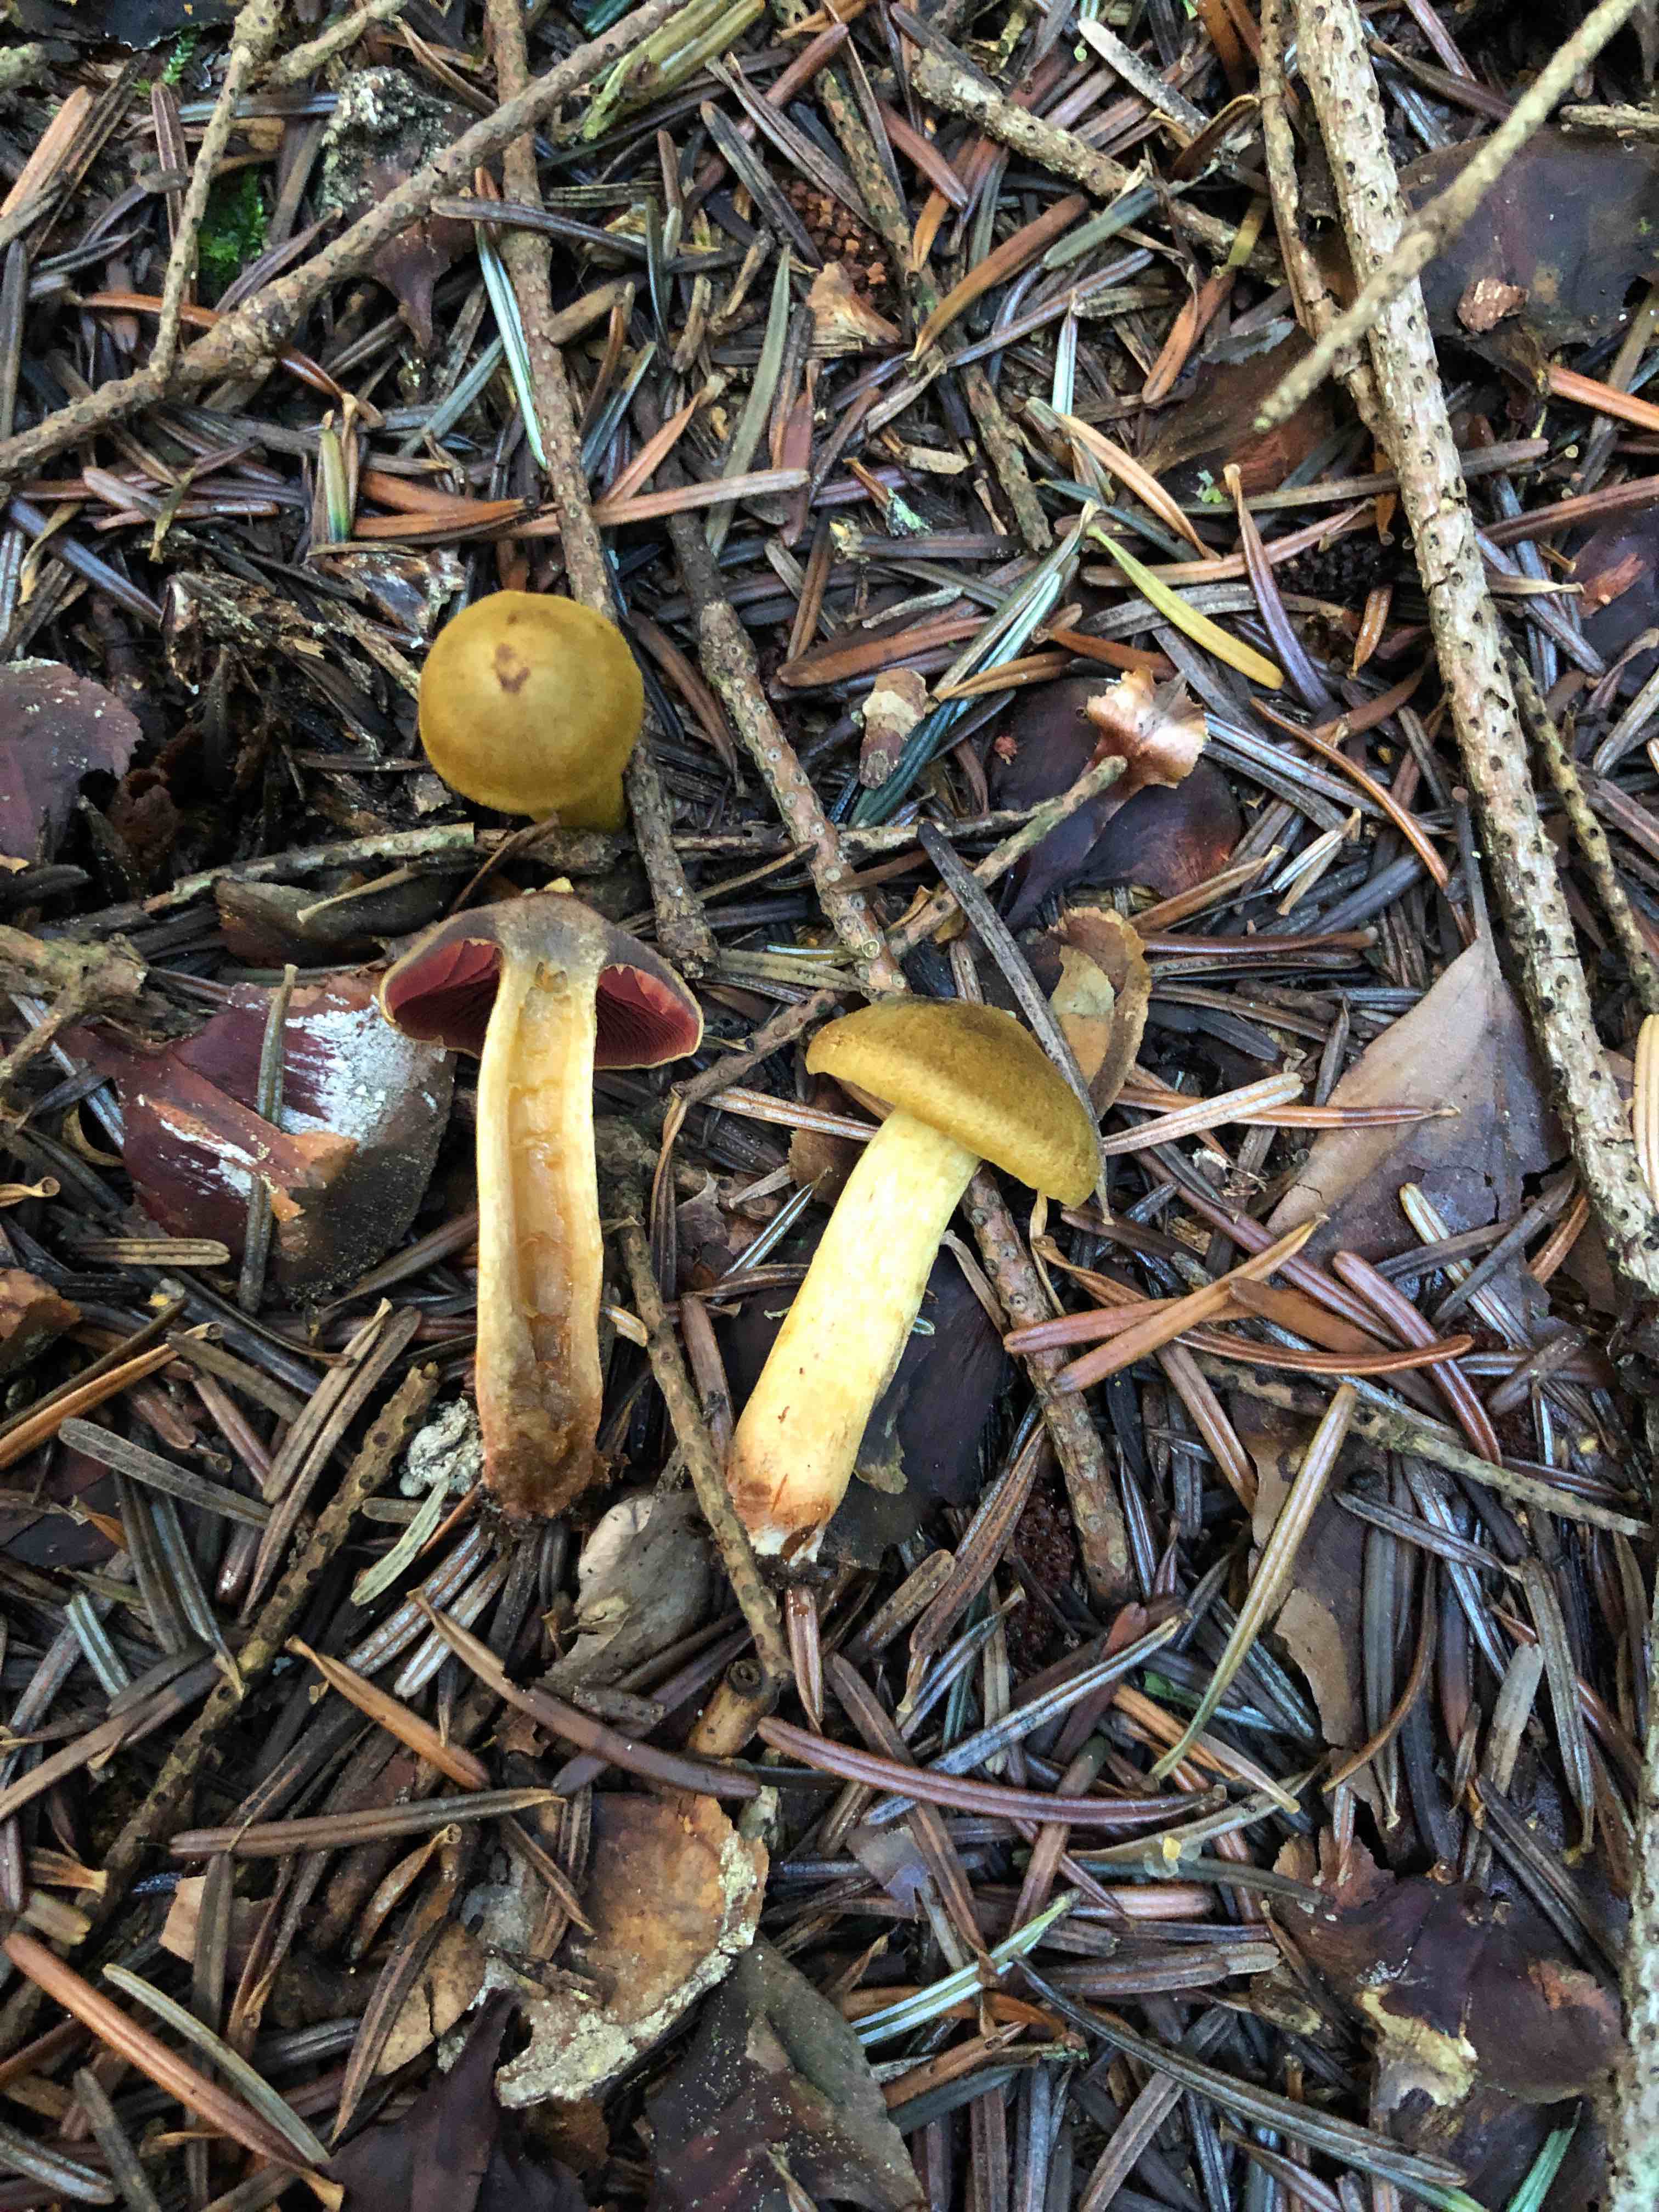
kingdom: Fungi
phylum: Basidiomycota
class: Agaricomycetes
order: Agaricales
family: Cortinariaceae
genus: Cortinarius
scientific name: Cortinarius
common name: cinnoberbladet slørhat
